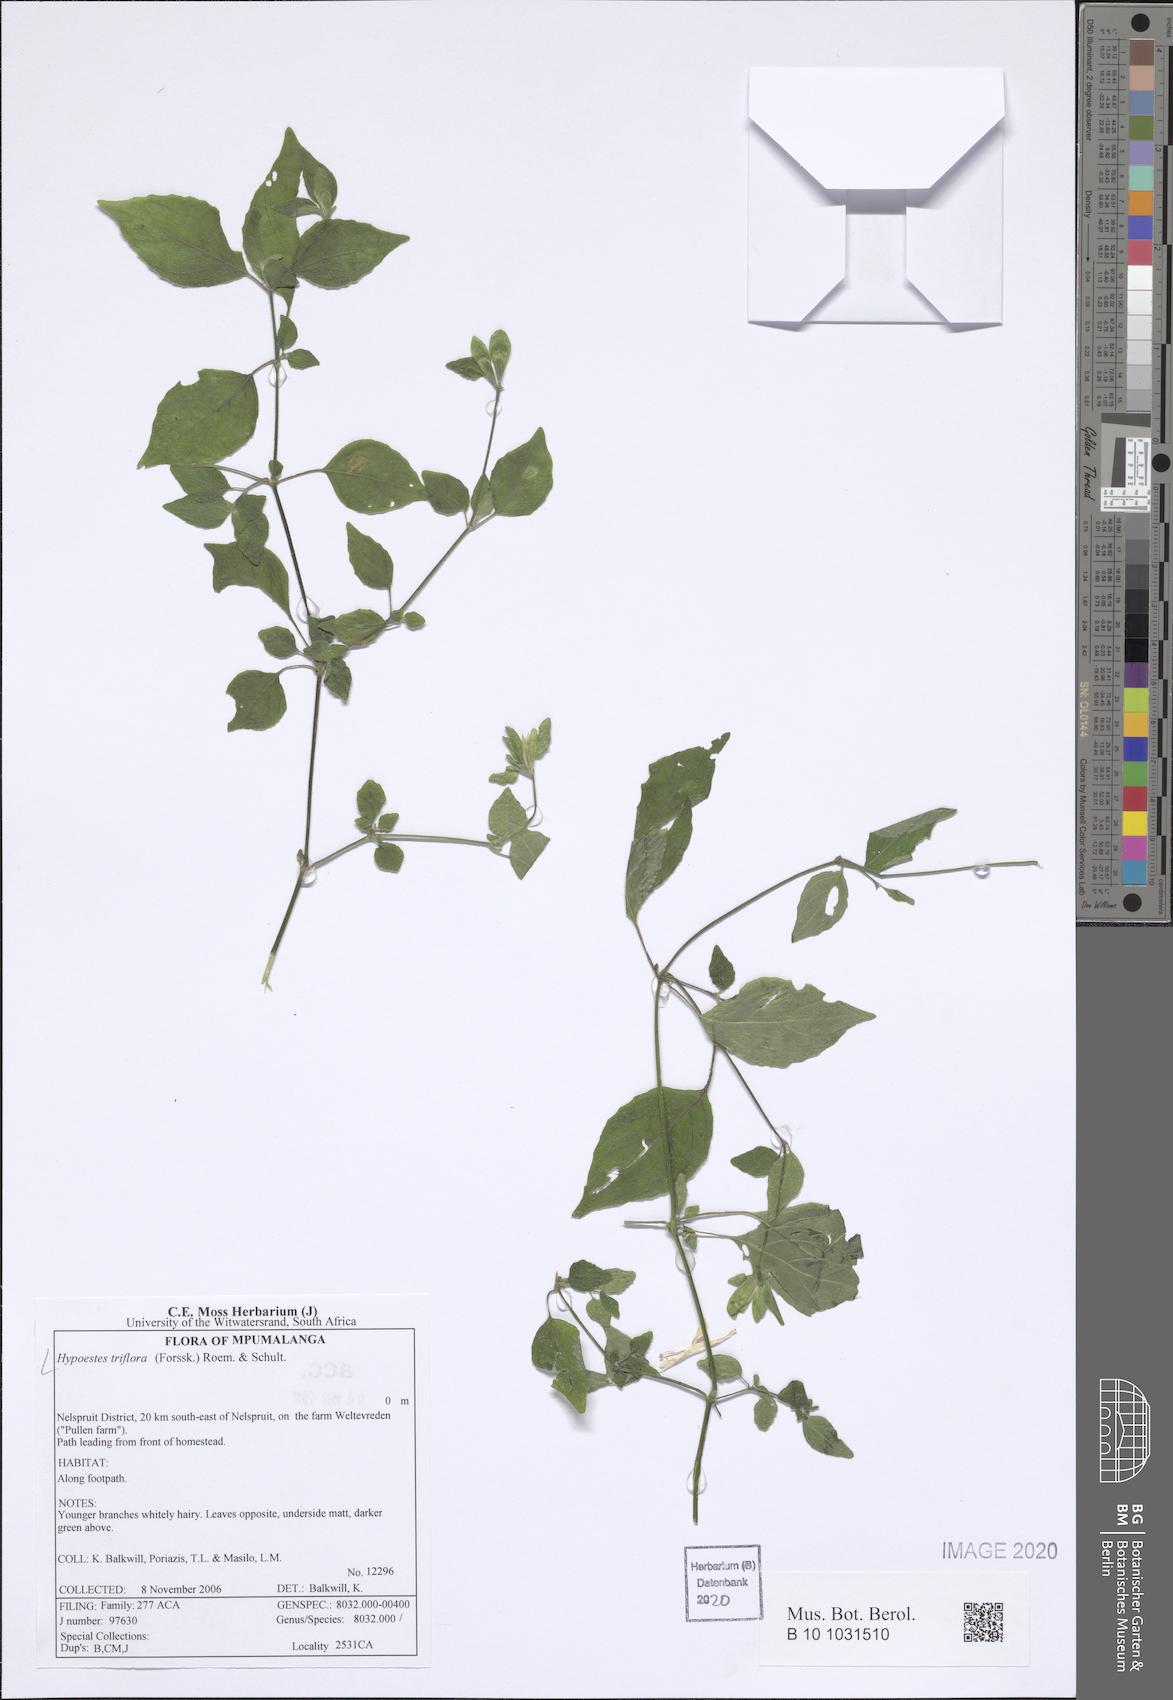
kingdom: Plantae
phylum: Tracheophyta
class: Magnoliopsida
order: Lamiales
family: Acanthaceae
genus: Hypoestes
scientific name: Hypoestes triflora
